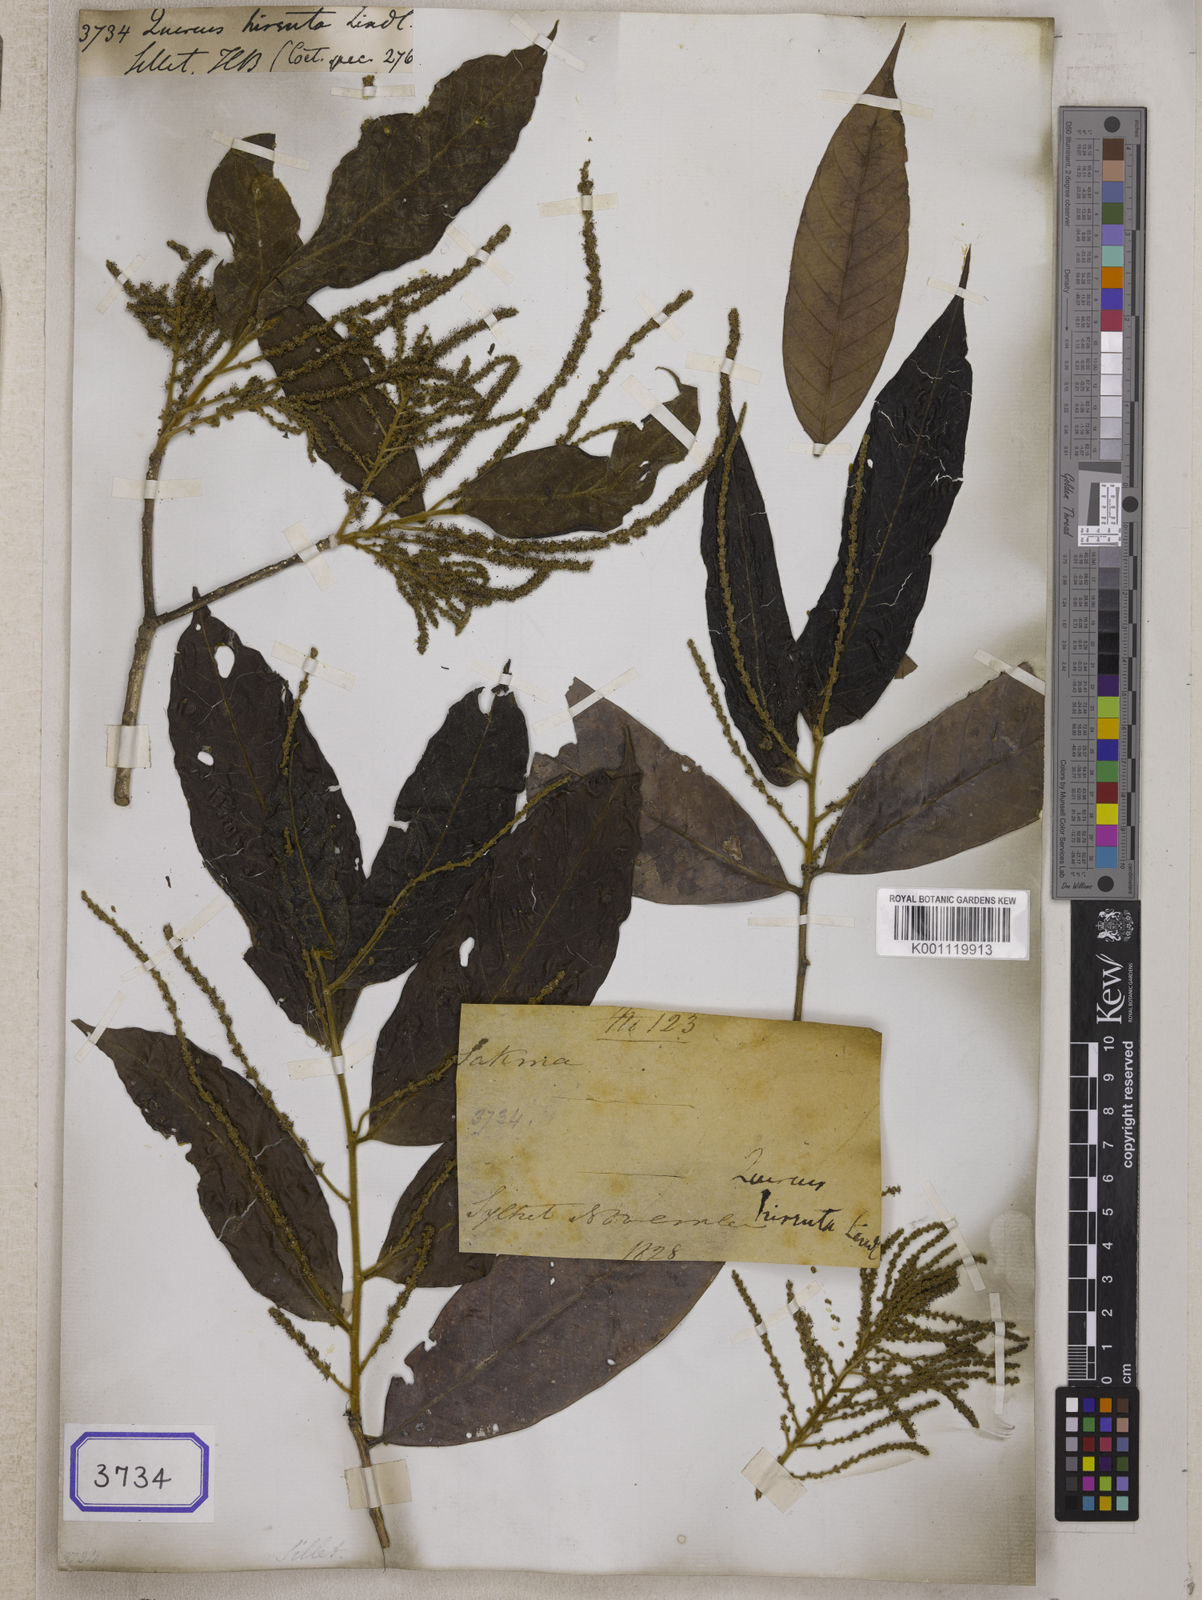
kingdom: Plantae
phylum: Tracheophyta
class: Magnoliopsida
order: Fagales
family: Fagaceae
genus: Quercus
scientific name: Quercus
